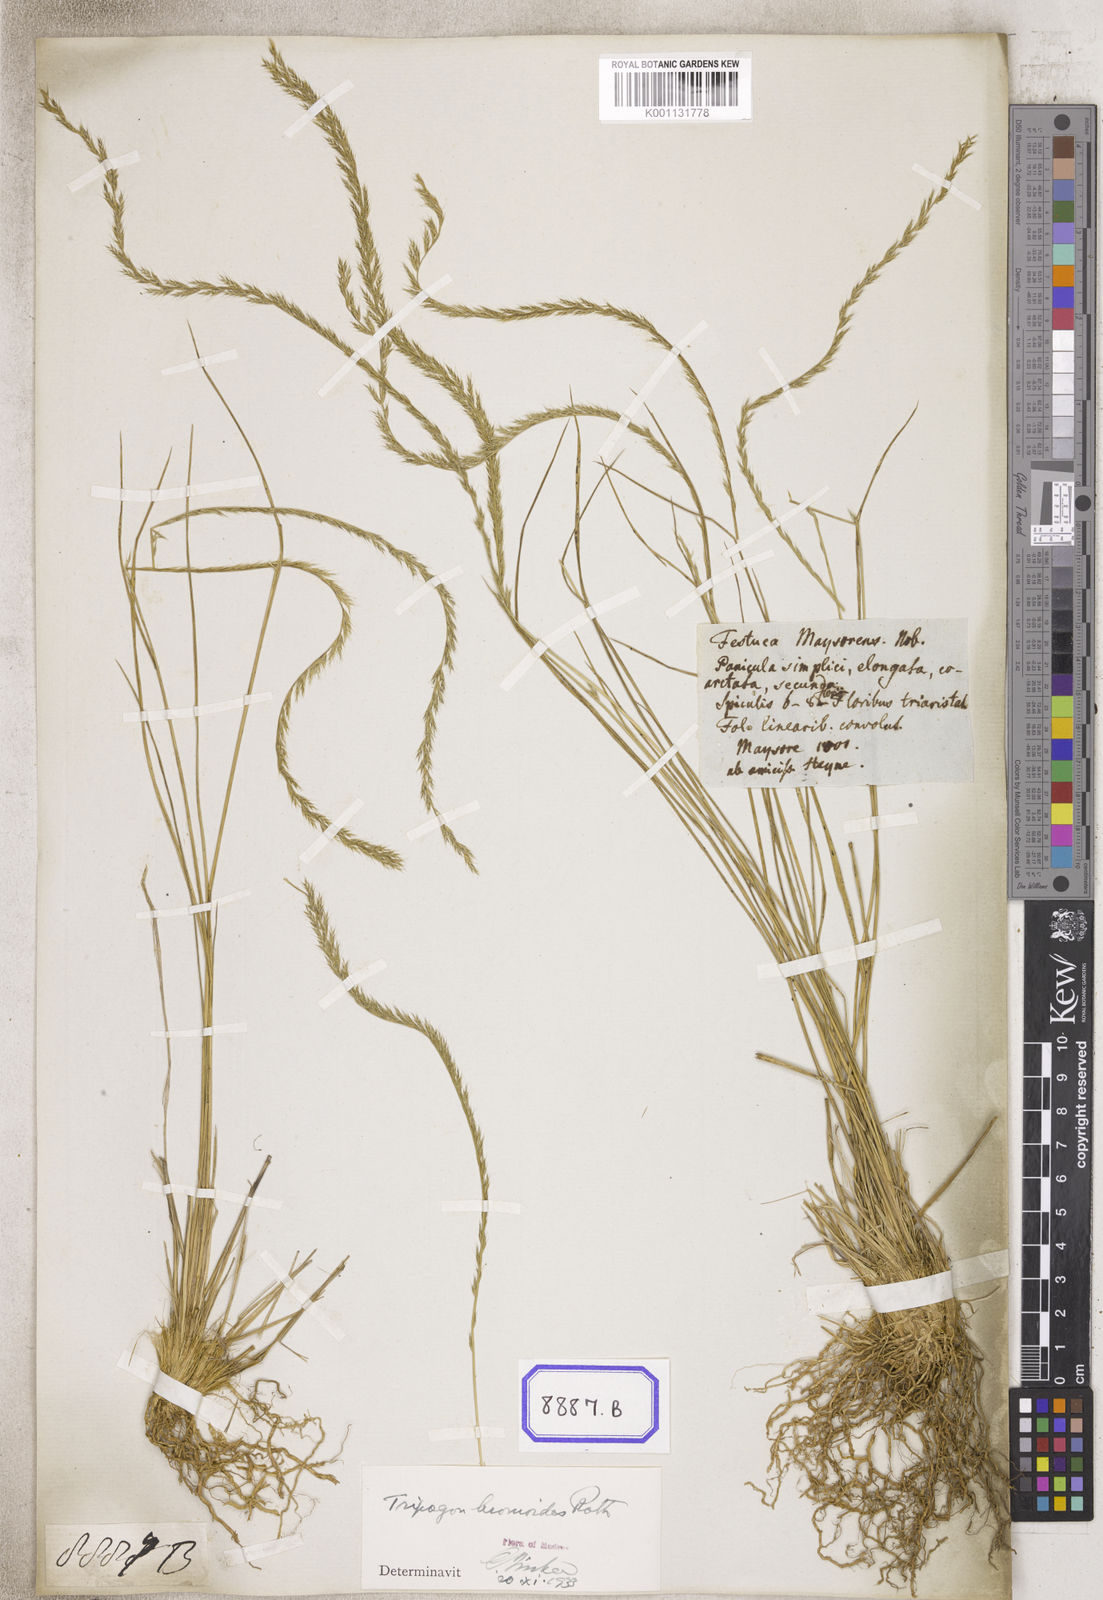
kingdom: Plantae
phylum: Tracheophyta
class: Liliopsida
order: Poales
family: Poaceae
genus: Tripogon
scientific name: Tripogon
